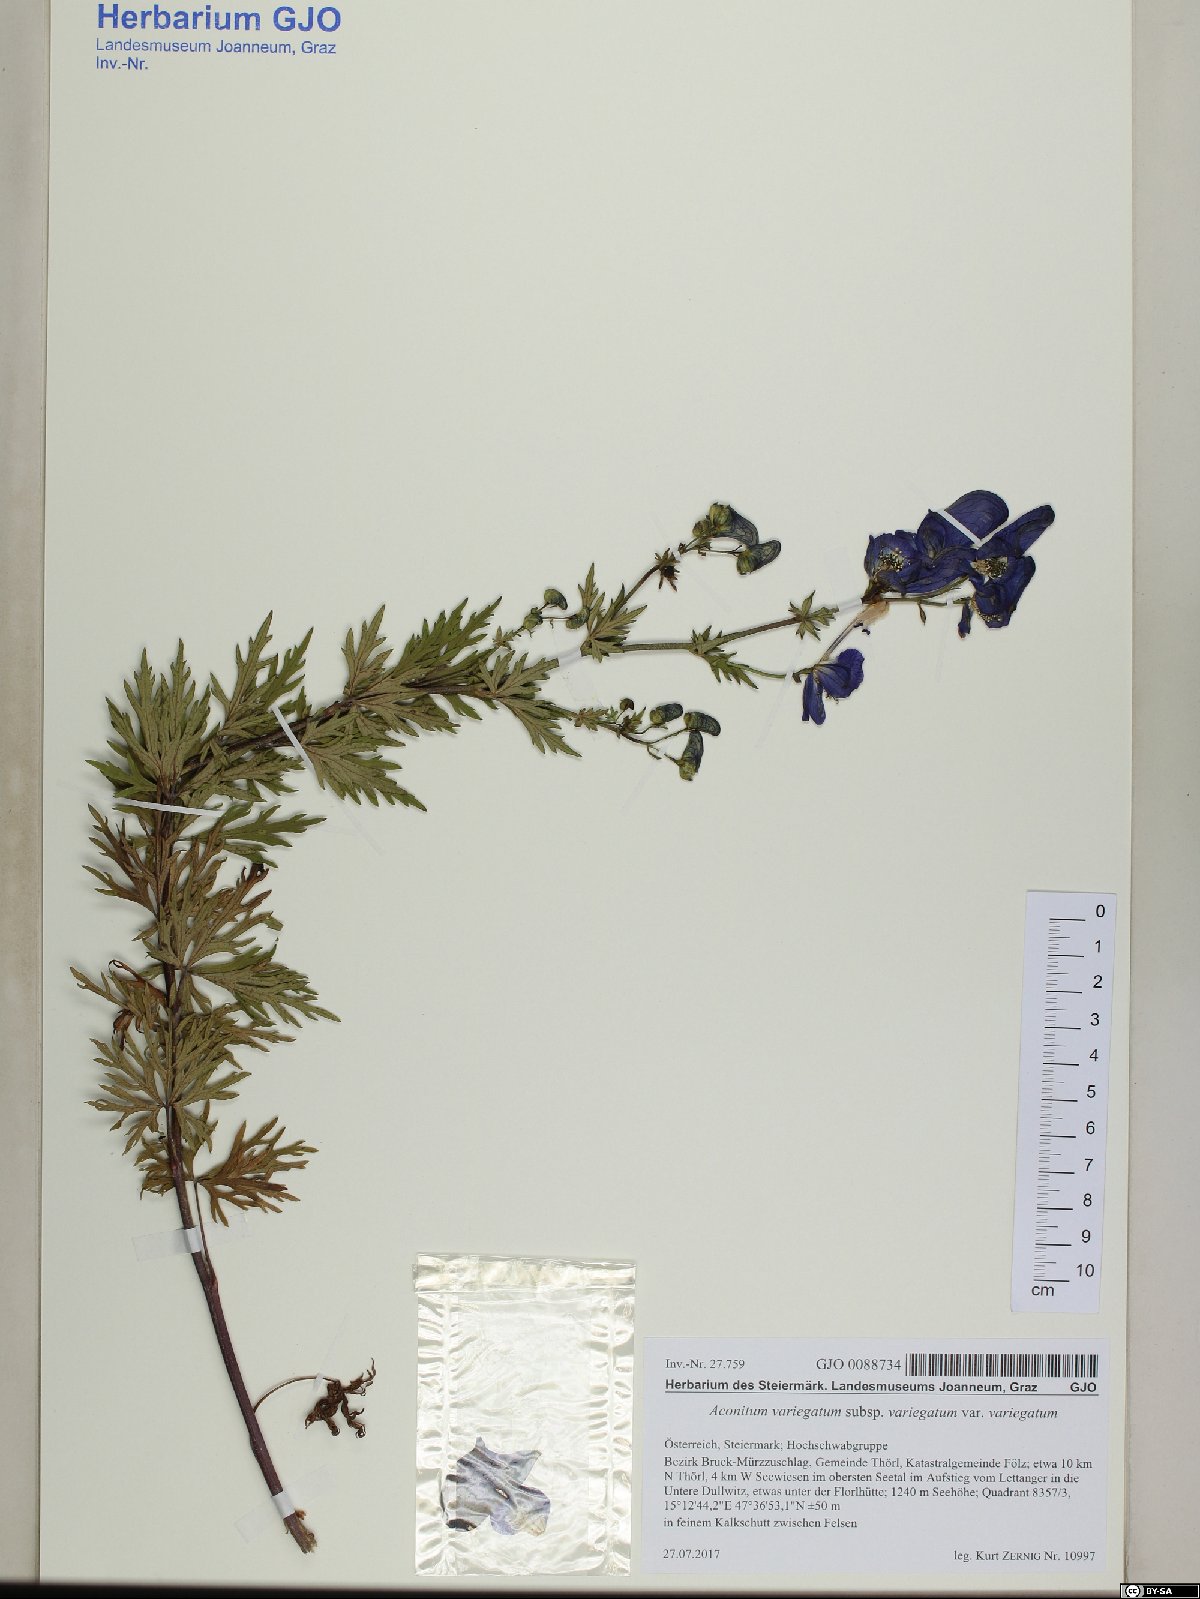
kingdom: Plantae
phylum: Tracheophyta
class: Magnoliopsida
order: Ranunculales
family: Ranunculaceae
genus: Aconitum
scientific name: Aconitum variegatum
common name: Manchurian monkshood
